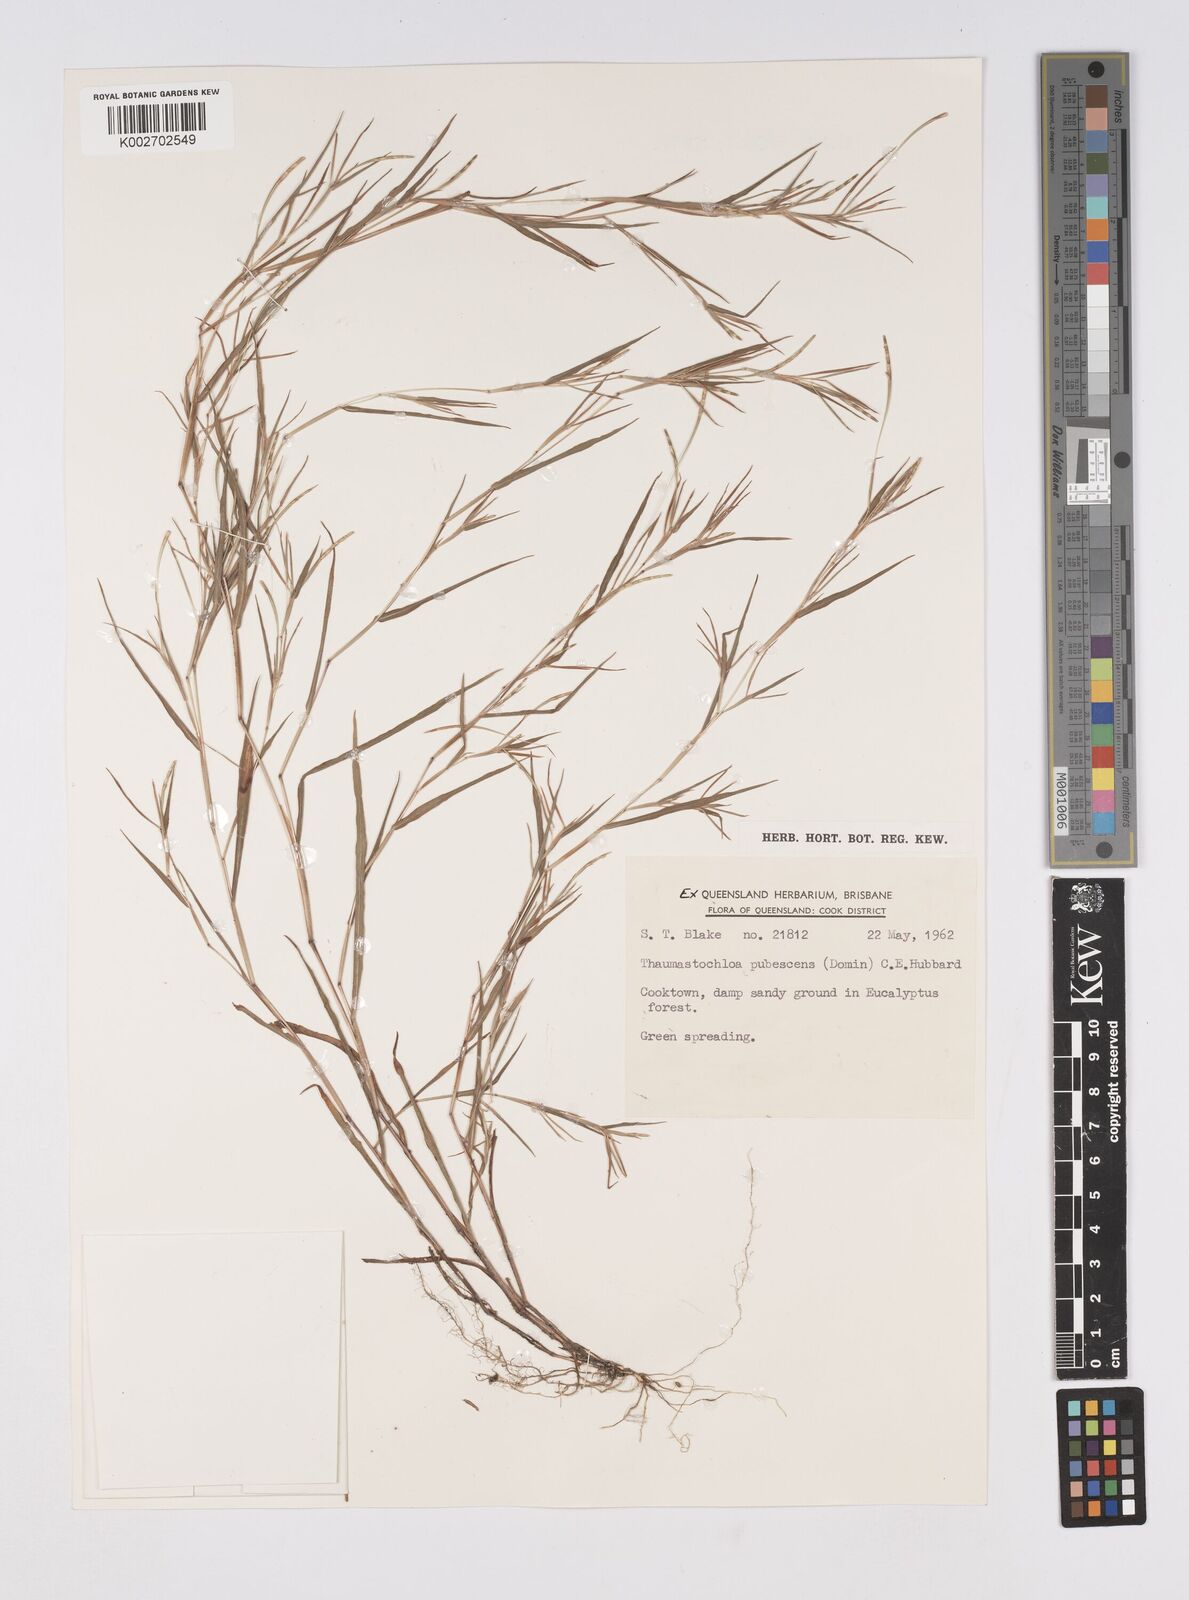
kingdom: Plantae
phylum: Tracheophyta
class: Liliopsida
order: Poales
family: Poaceae
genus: Thaumastochloa
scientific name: Thaumastochloa pubescens
